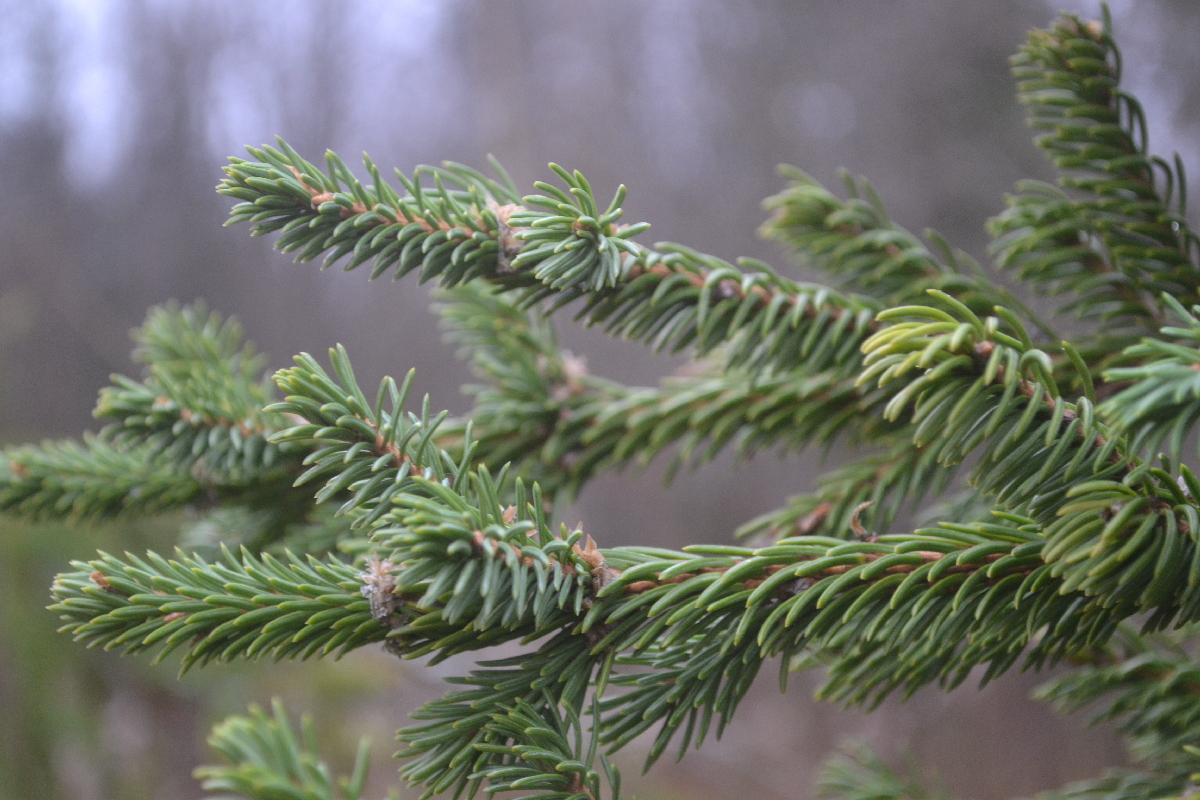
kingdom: Plantae
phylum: Tracheophyta
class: Pinopsida
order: Pinales
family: Pinaceae
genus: Picea
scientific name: Picea abies
